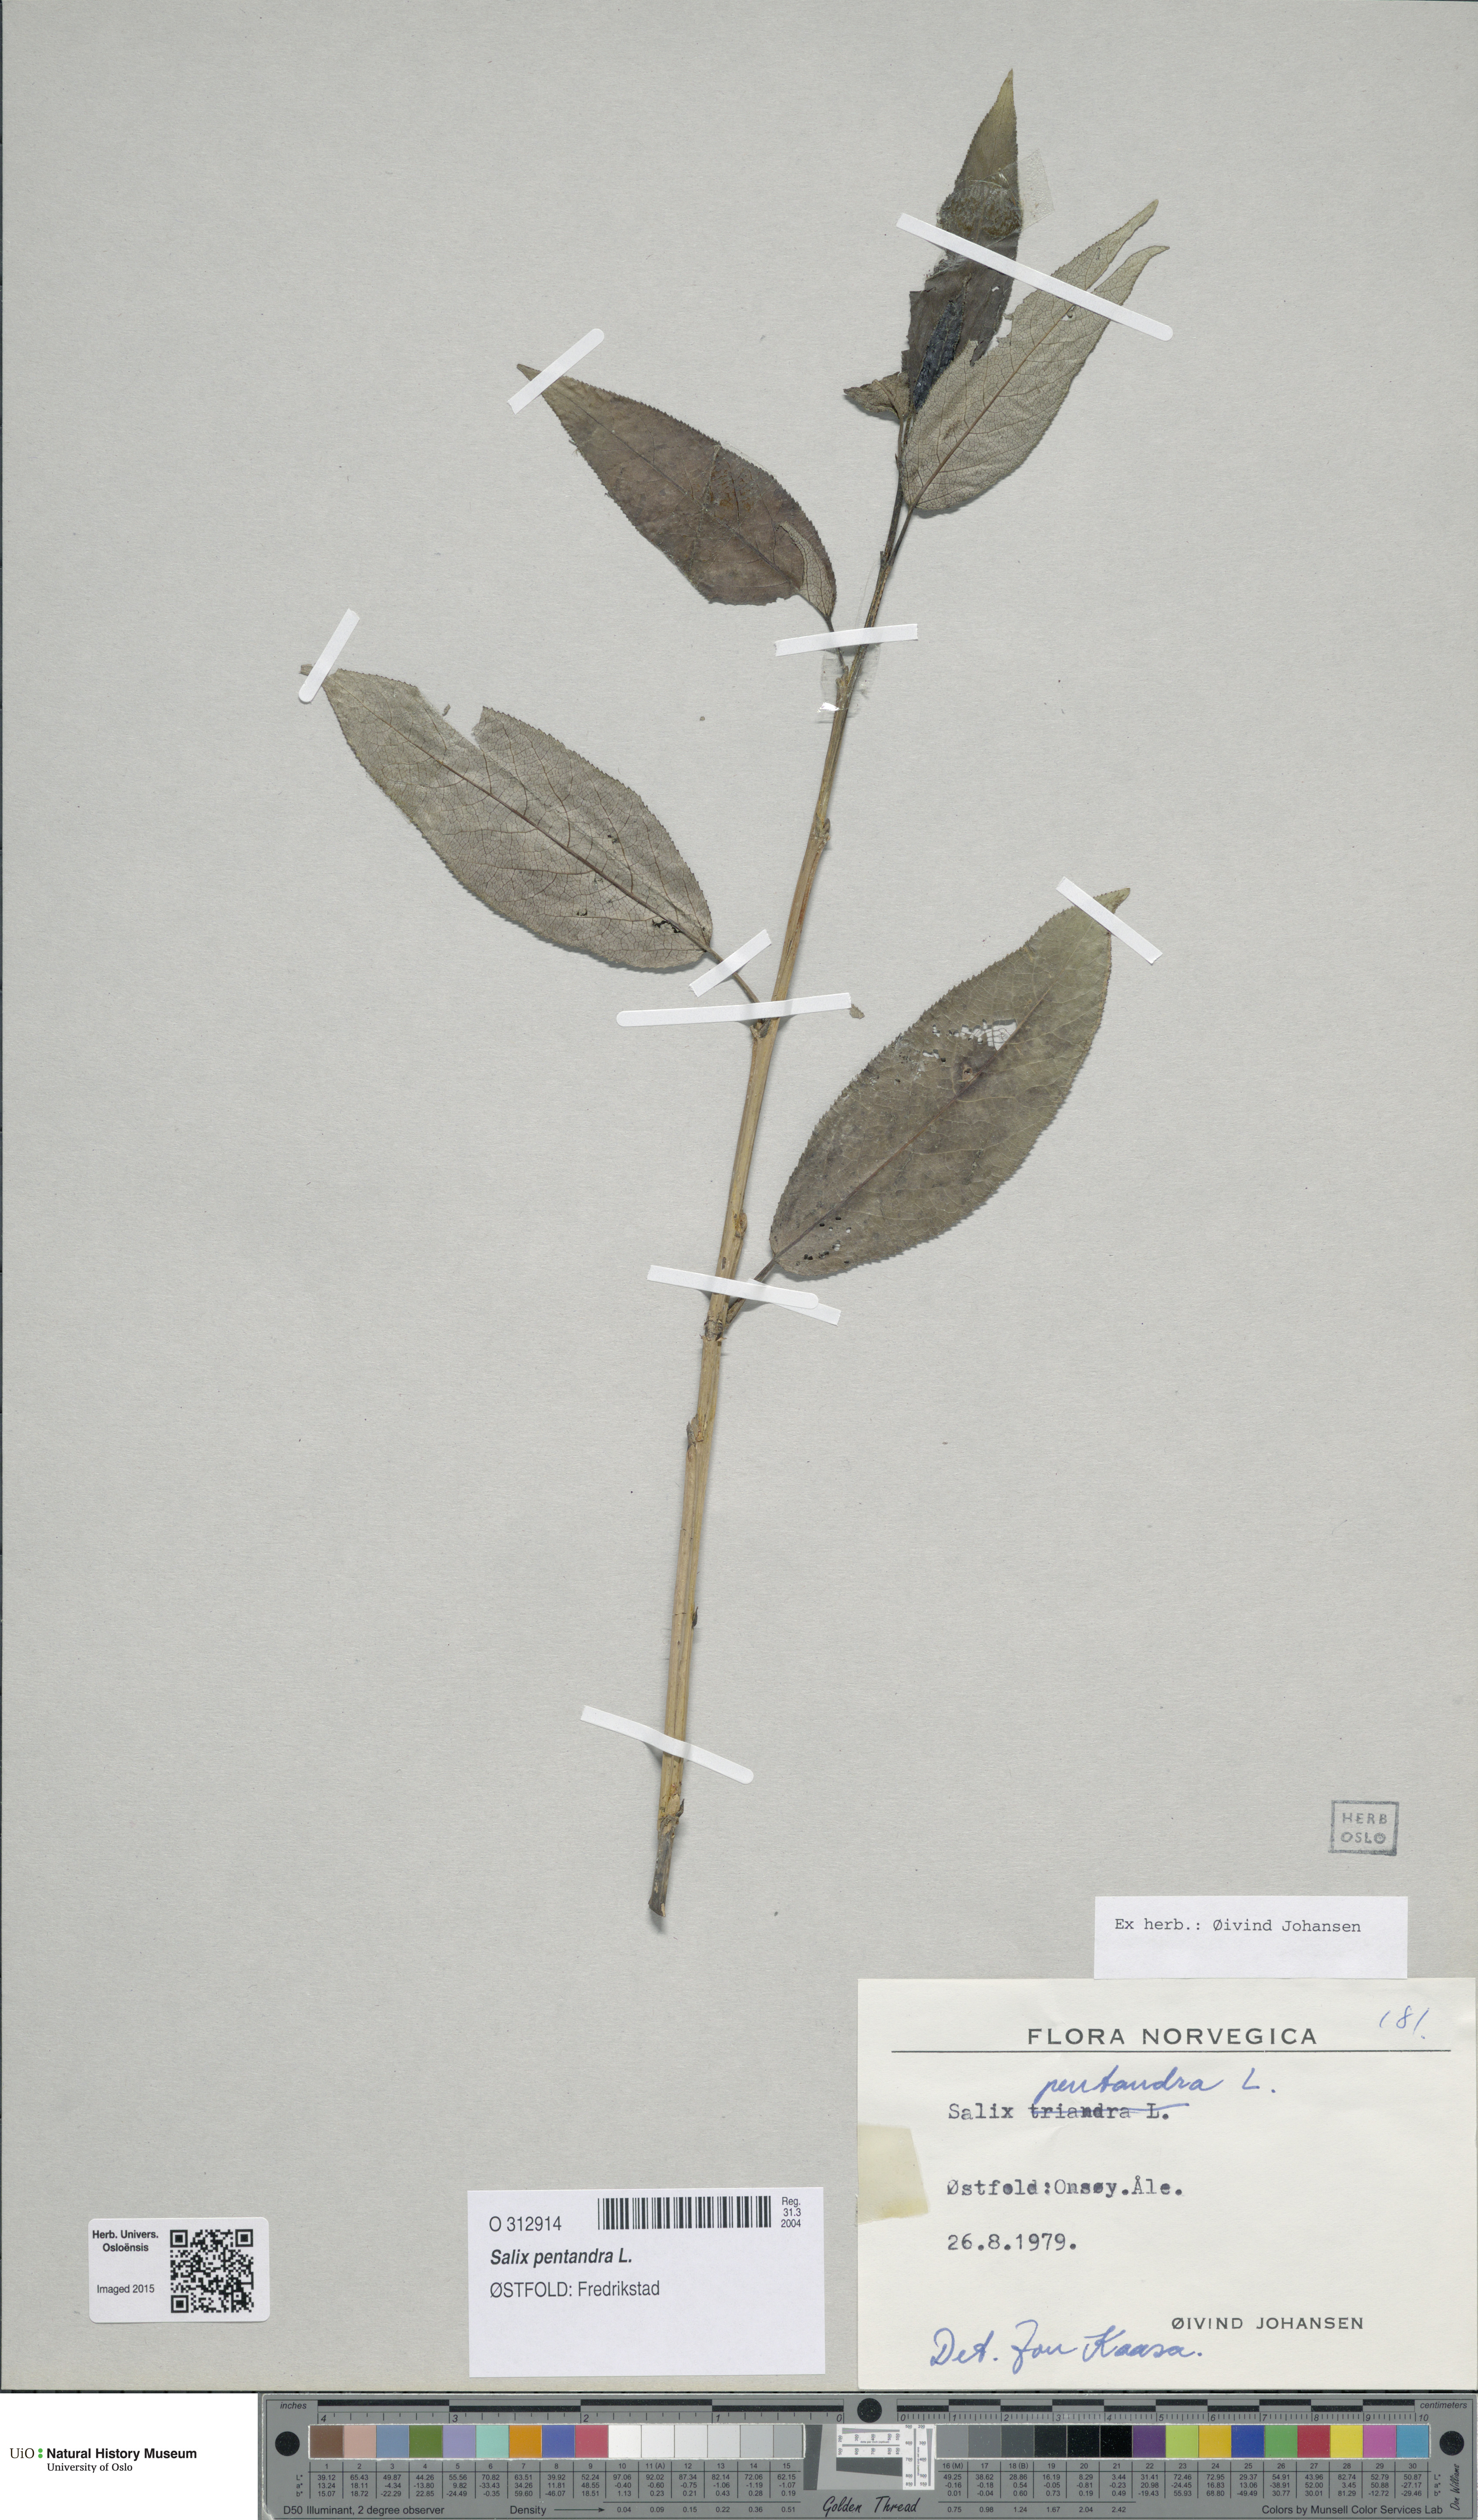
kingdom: Plantae
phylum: Tracheophyta
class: Magnoliopsida
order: Malpighiales
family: Salicaceae
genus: Salix
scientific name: Salix pentandra
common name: Bay willow
